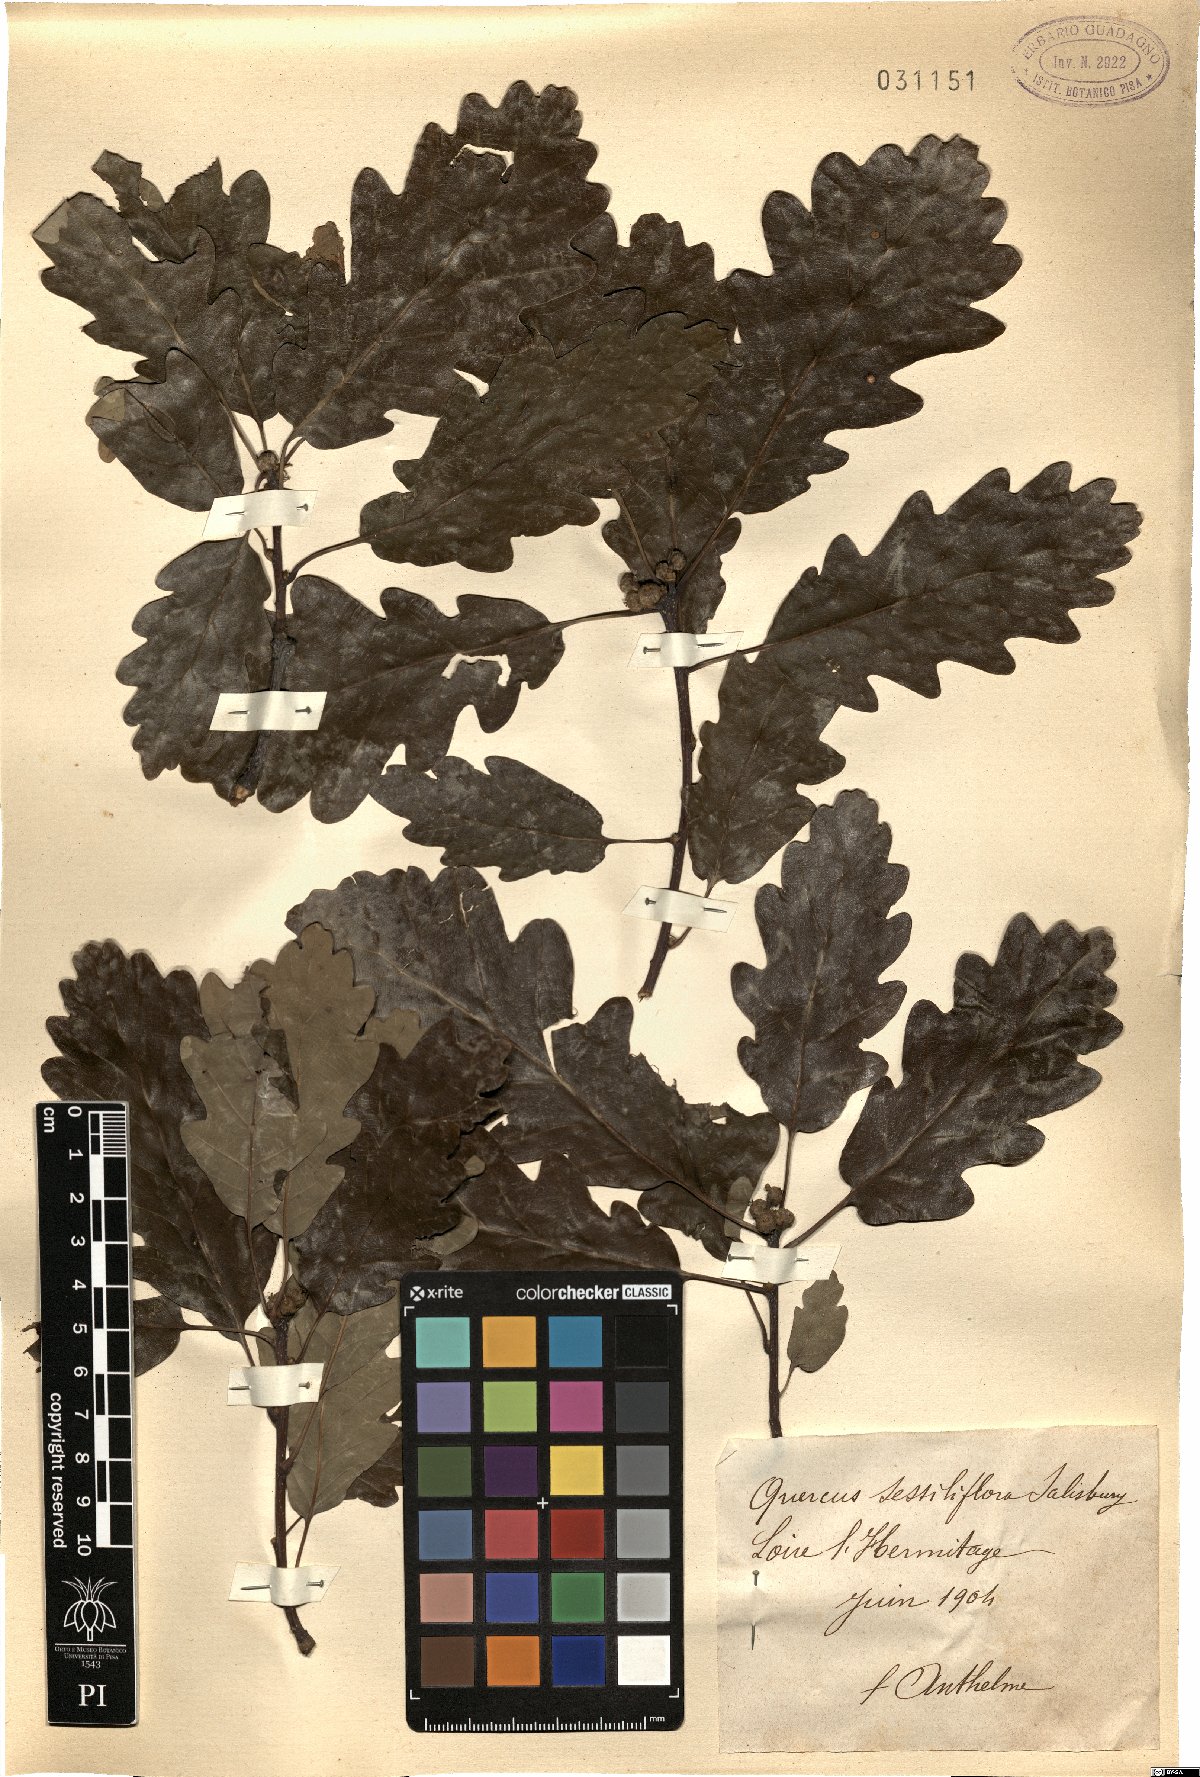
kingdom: Plantae
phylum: Tracheophyta
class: Magnoliopsida
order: Fagales
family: Fagaceae
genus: Quercus
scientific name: Quercus petraea
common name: Sessile oak
